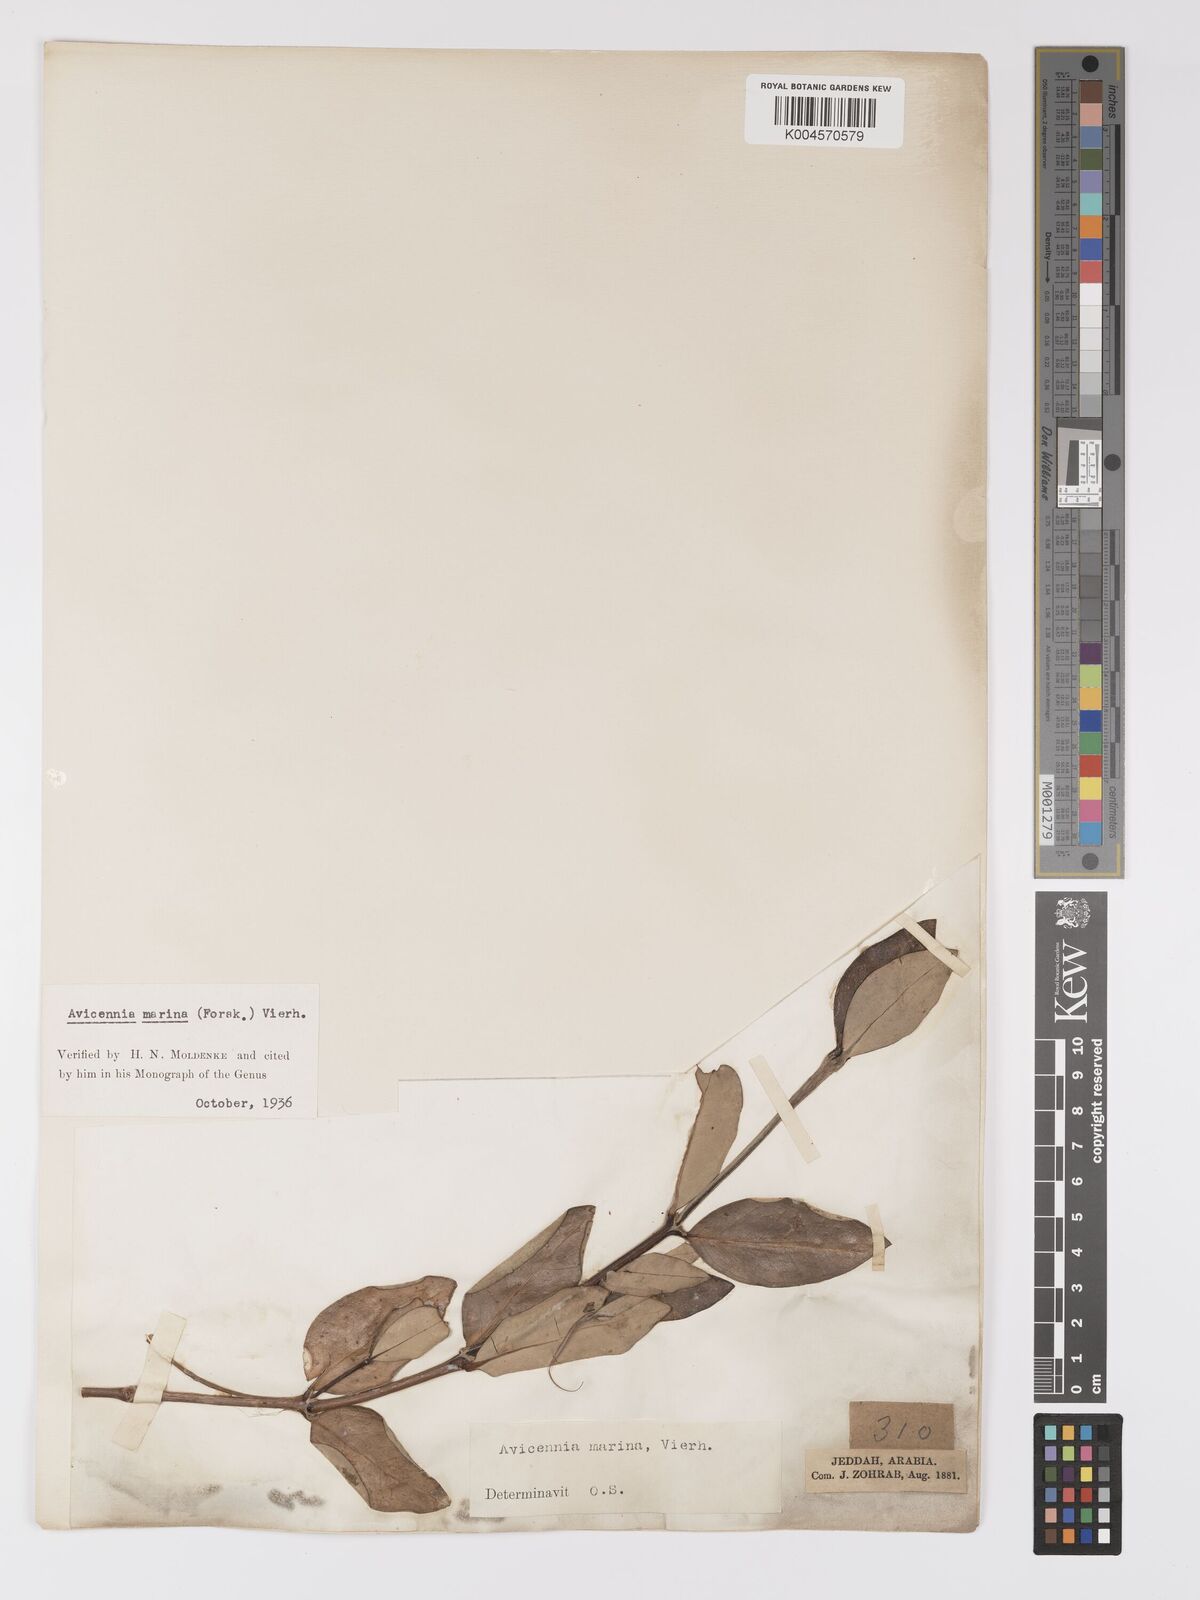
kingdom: Plantae
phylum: Tracheophyta
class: Magnoliopsida
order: Lamiales
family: Acanthaceae
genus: Avicennia
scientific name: Avicennia marina
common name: Gray mangrove
